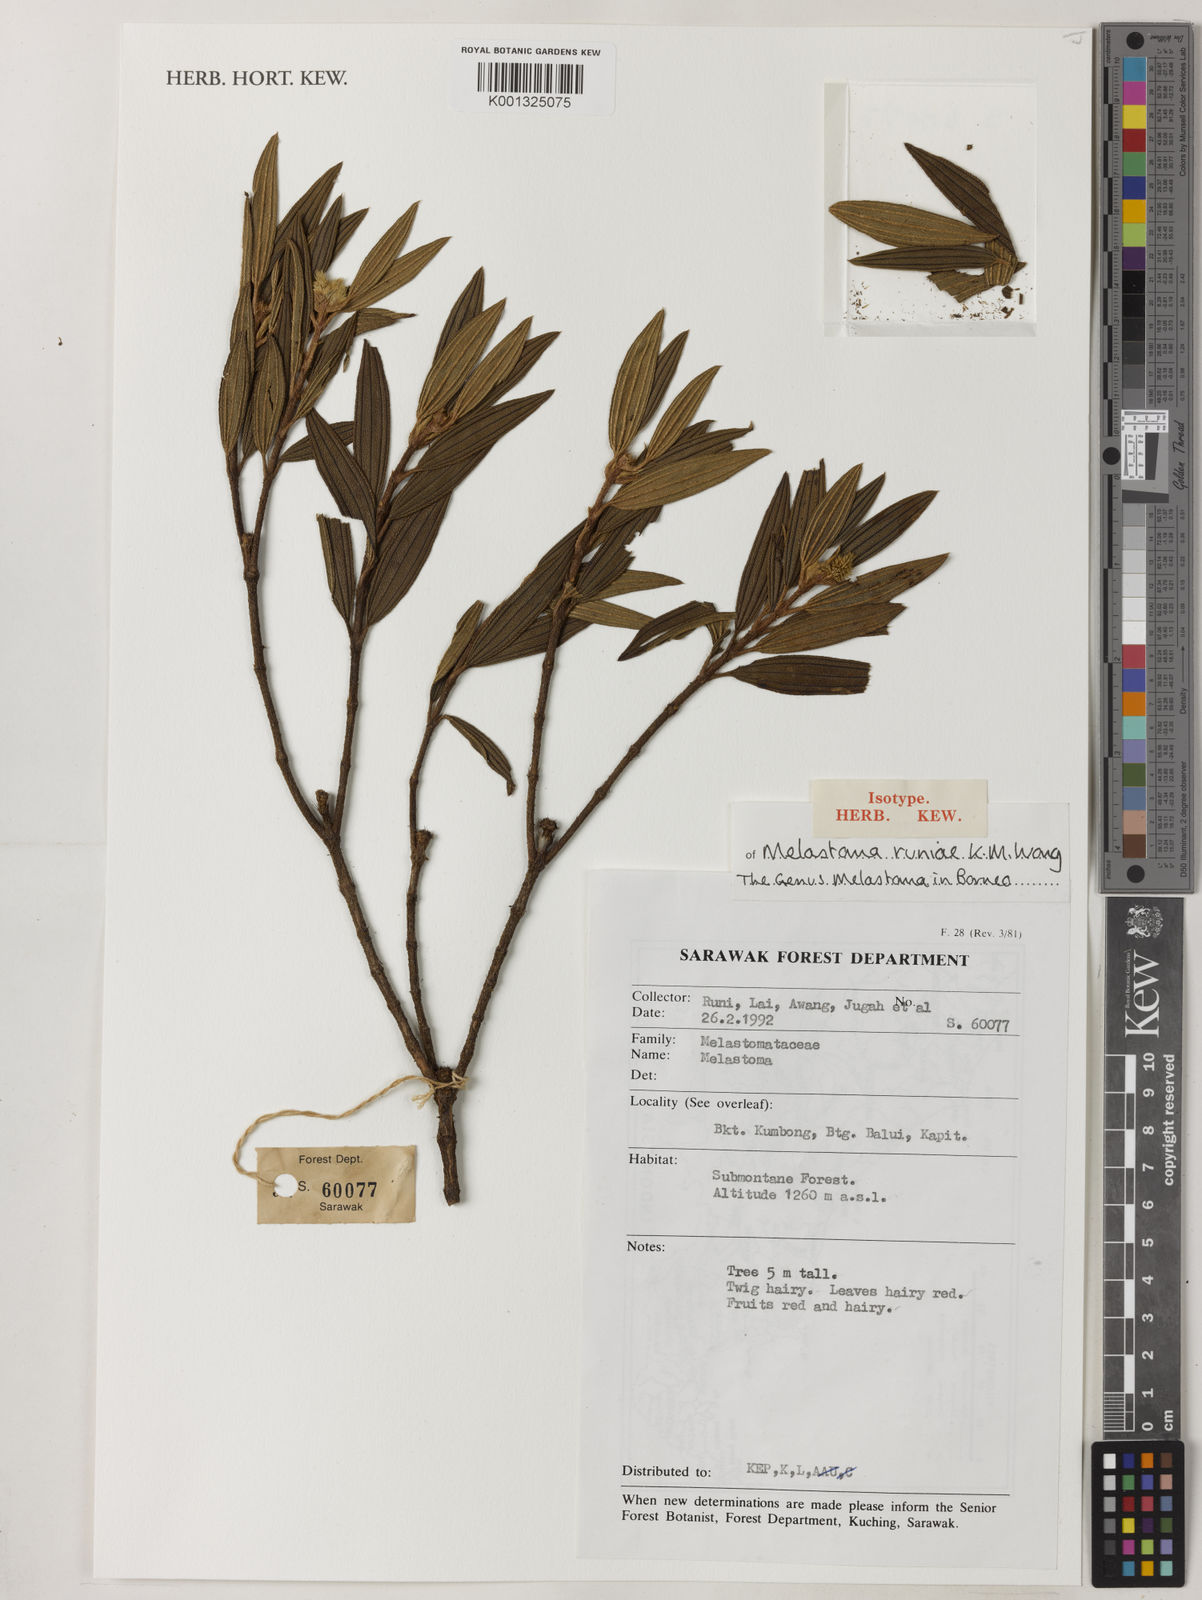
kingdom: Plantae
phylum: Tracheophyta
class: Magnoliopsida
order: Myrtales
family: Melastomataceae
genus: Melastoma
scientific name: Melastoma runiae
